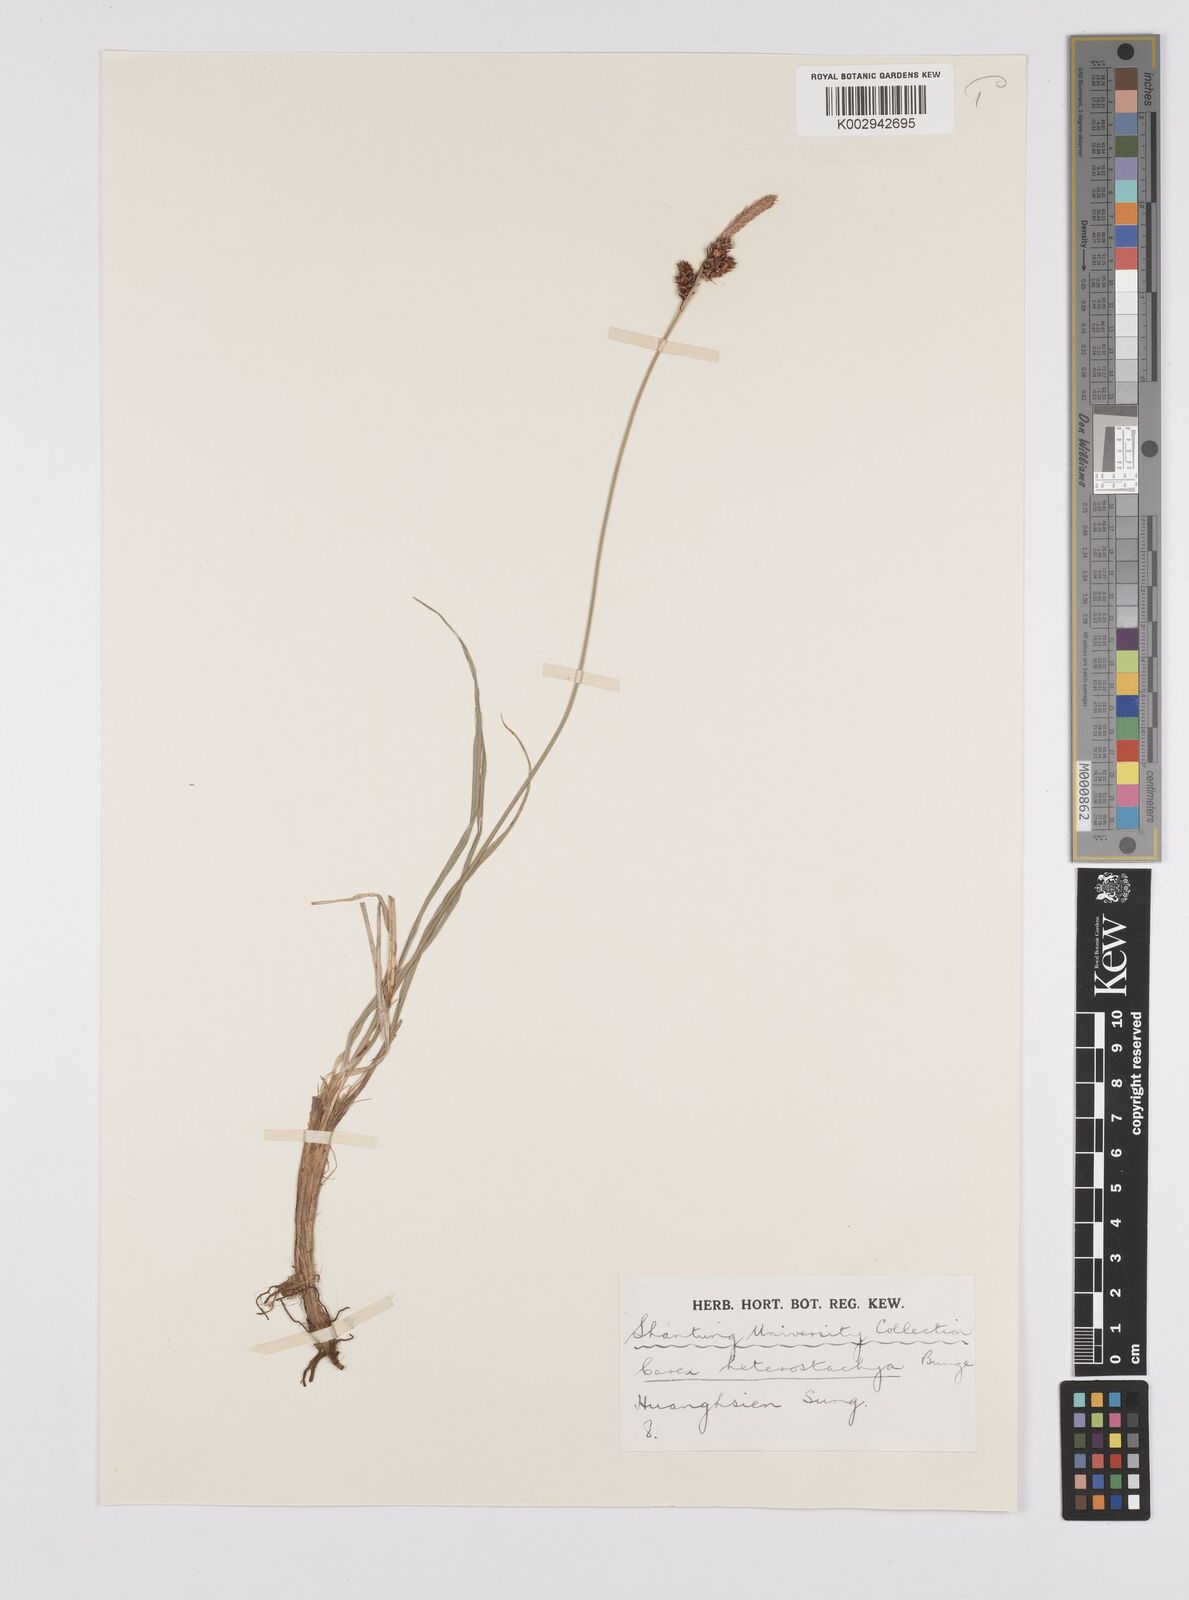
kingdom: Plantae
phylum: Tracheophyta
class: Liliopsida
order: Poales
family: Cyperaceae
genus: Carex
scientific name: Carex heterostachya
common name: Different-spike sedge
